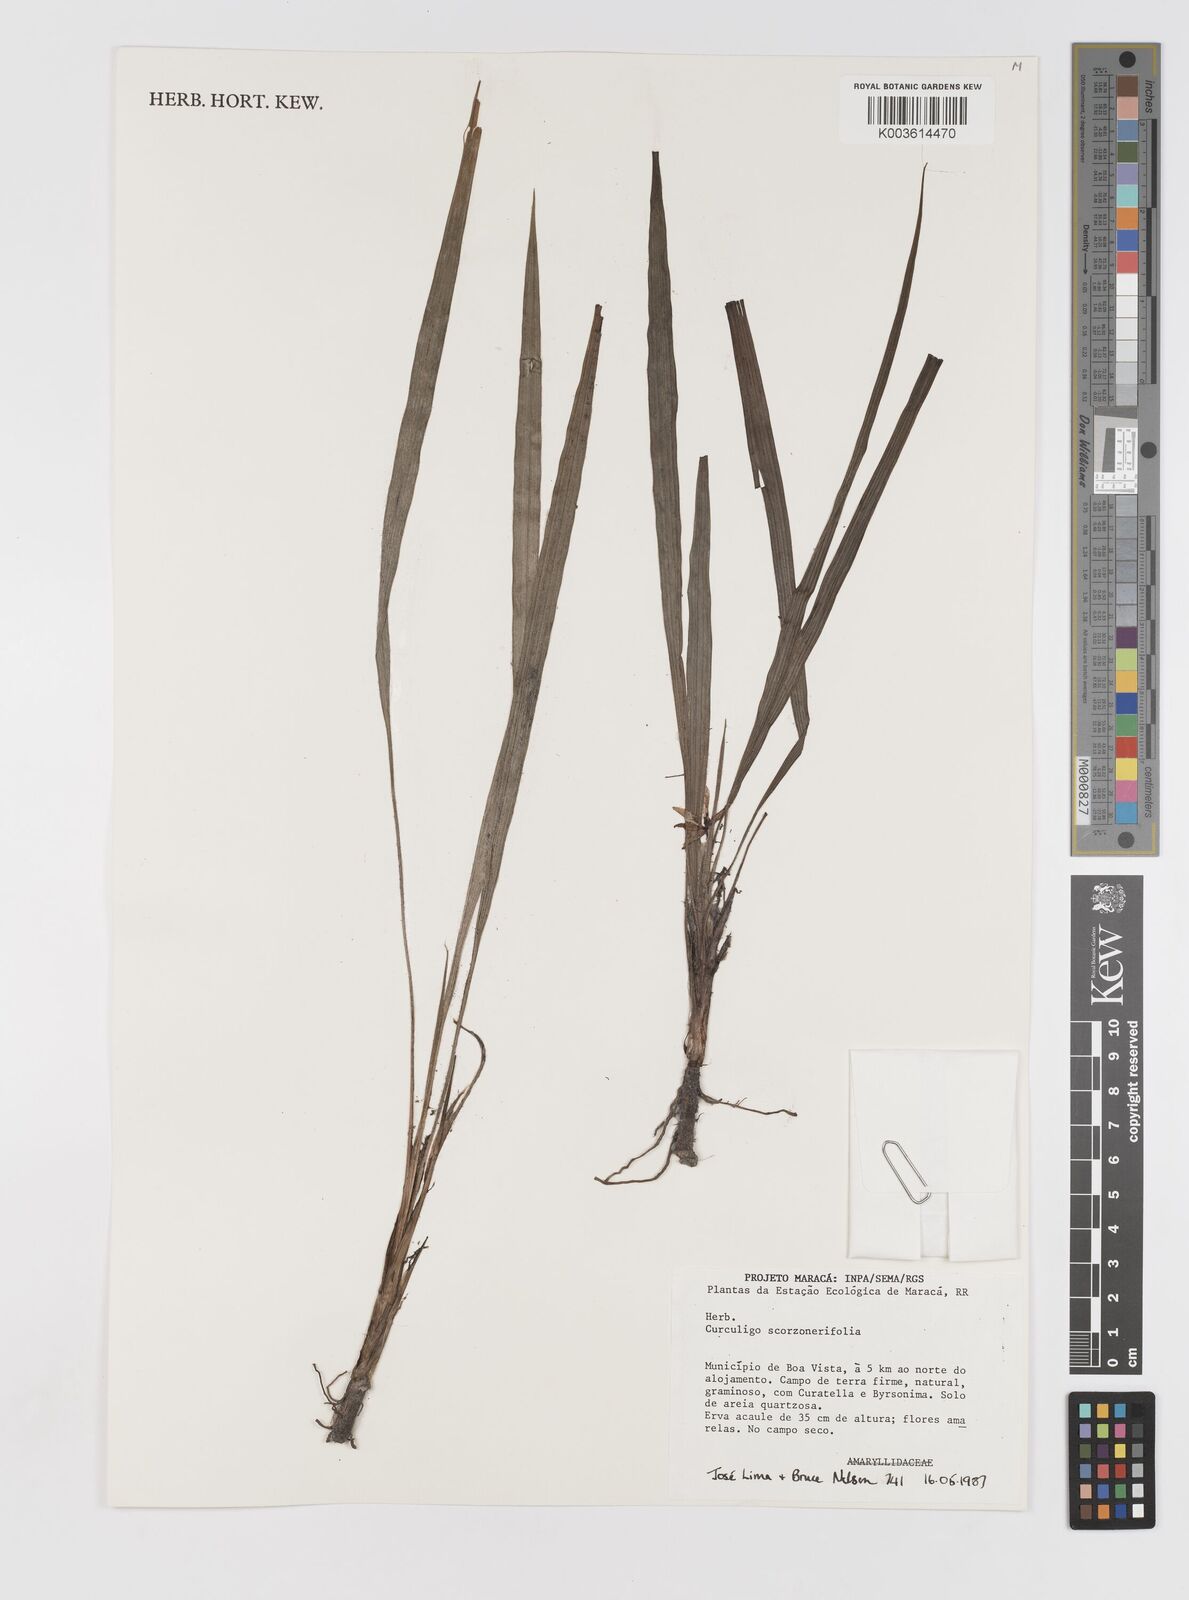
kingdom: Plantae
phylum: Tracheophyta
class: Liliopsida
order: Asparagales
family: Hypoxidaceae
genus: Curculigo
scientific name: Curculigo scorzonerifolia
